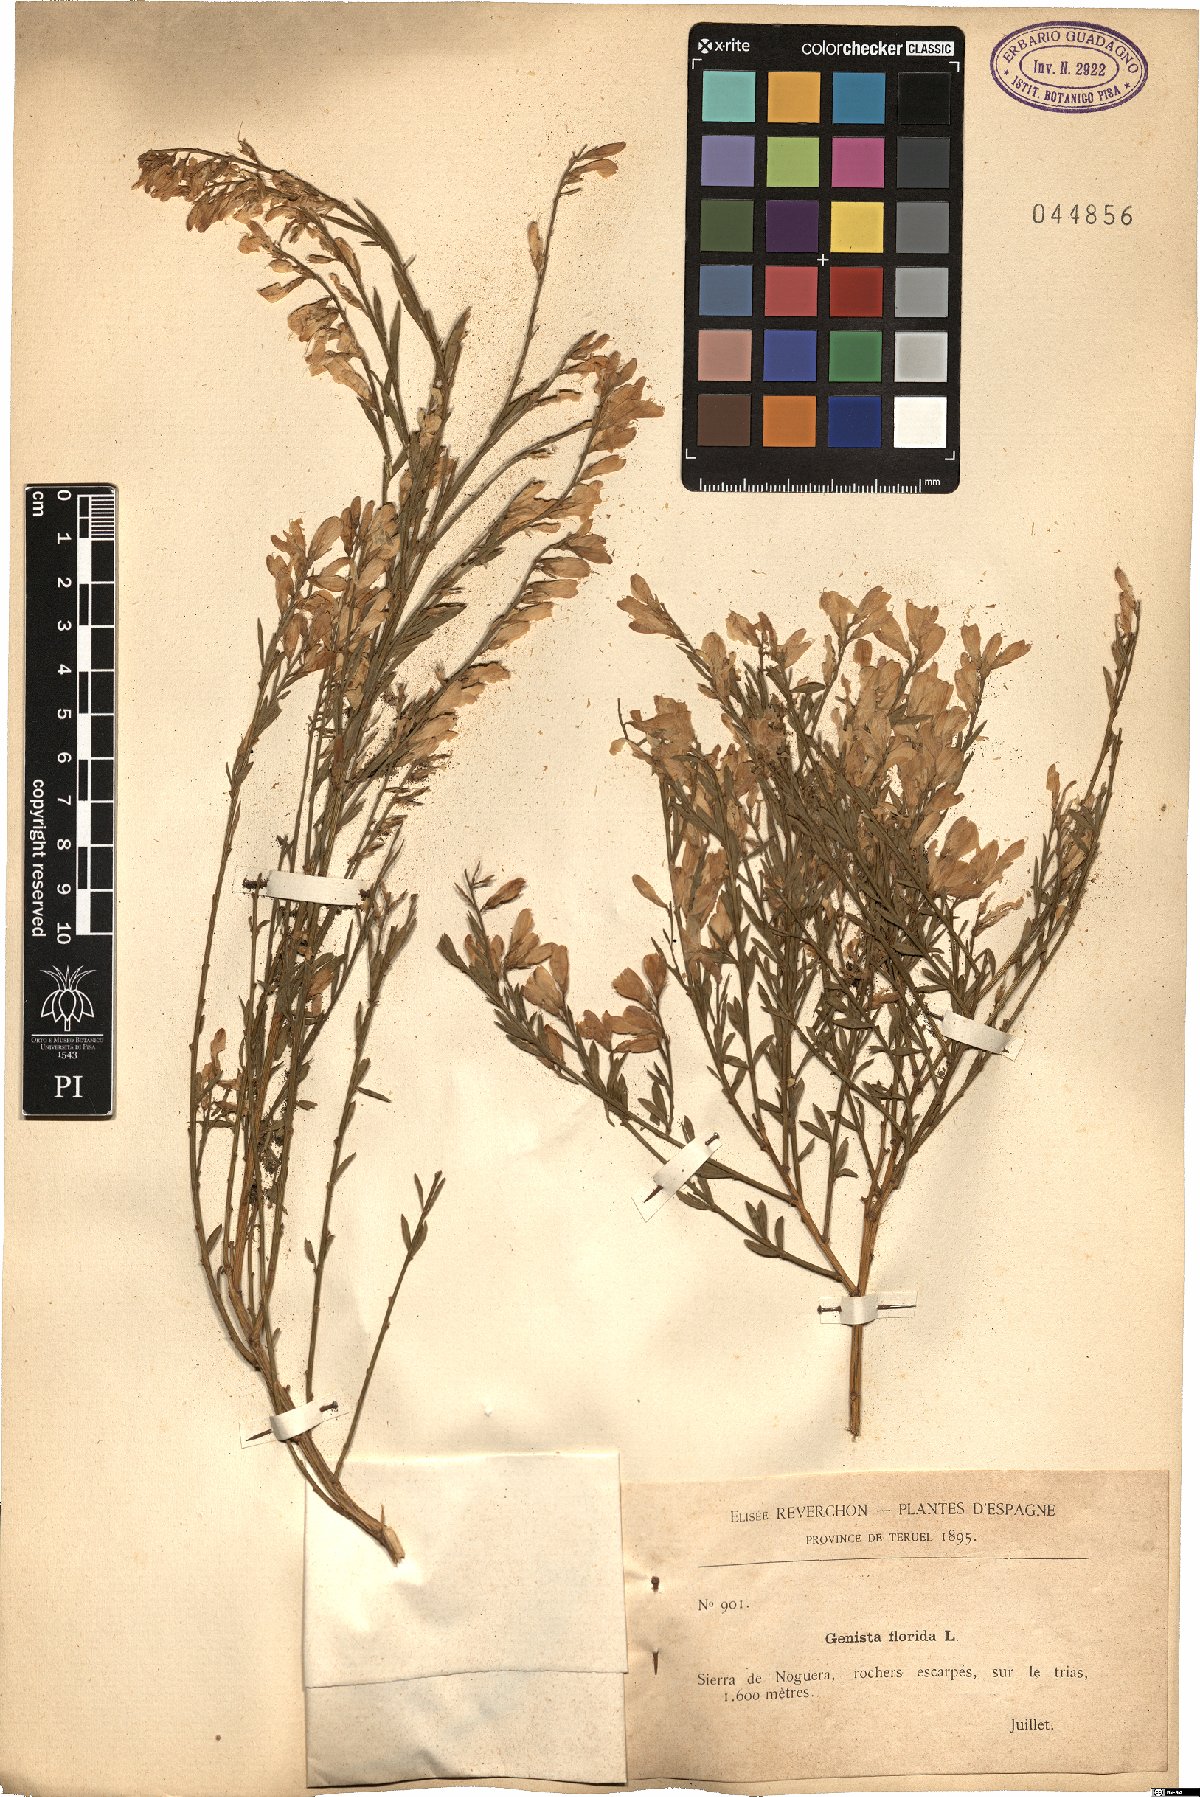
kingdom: Plantae
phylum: Tracheophyta
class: Magnoliopsida
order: Fabales
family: Fabaceae
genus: Genista
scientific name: Genista florida
